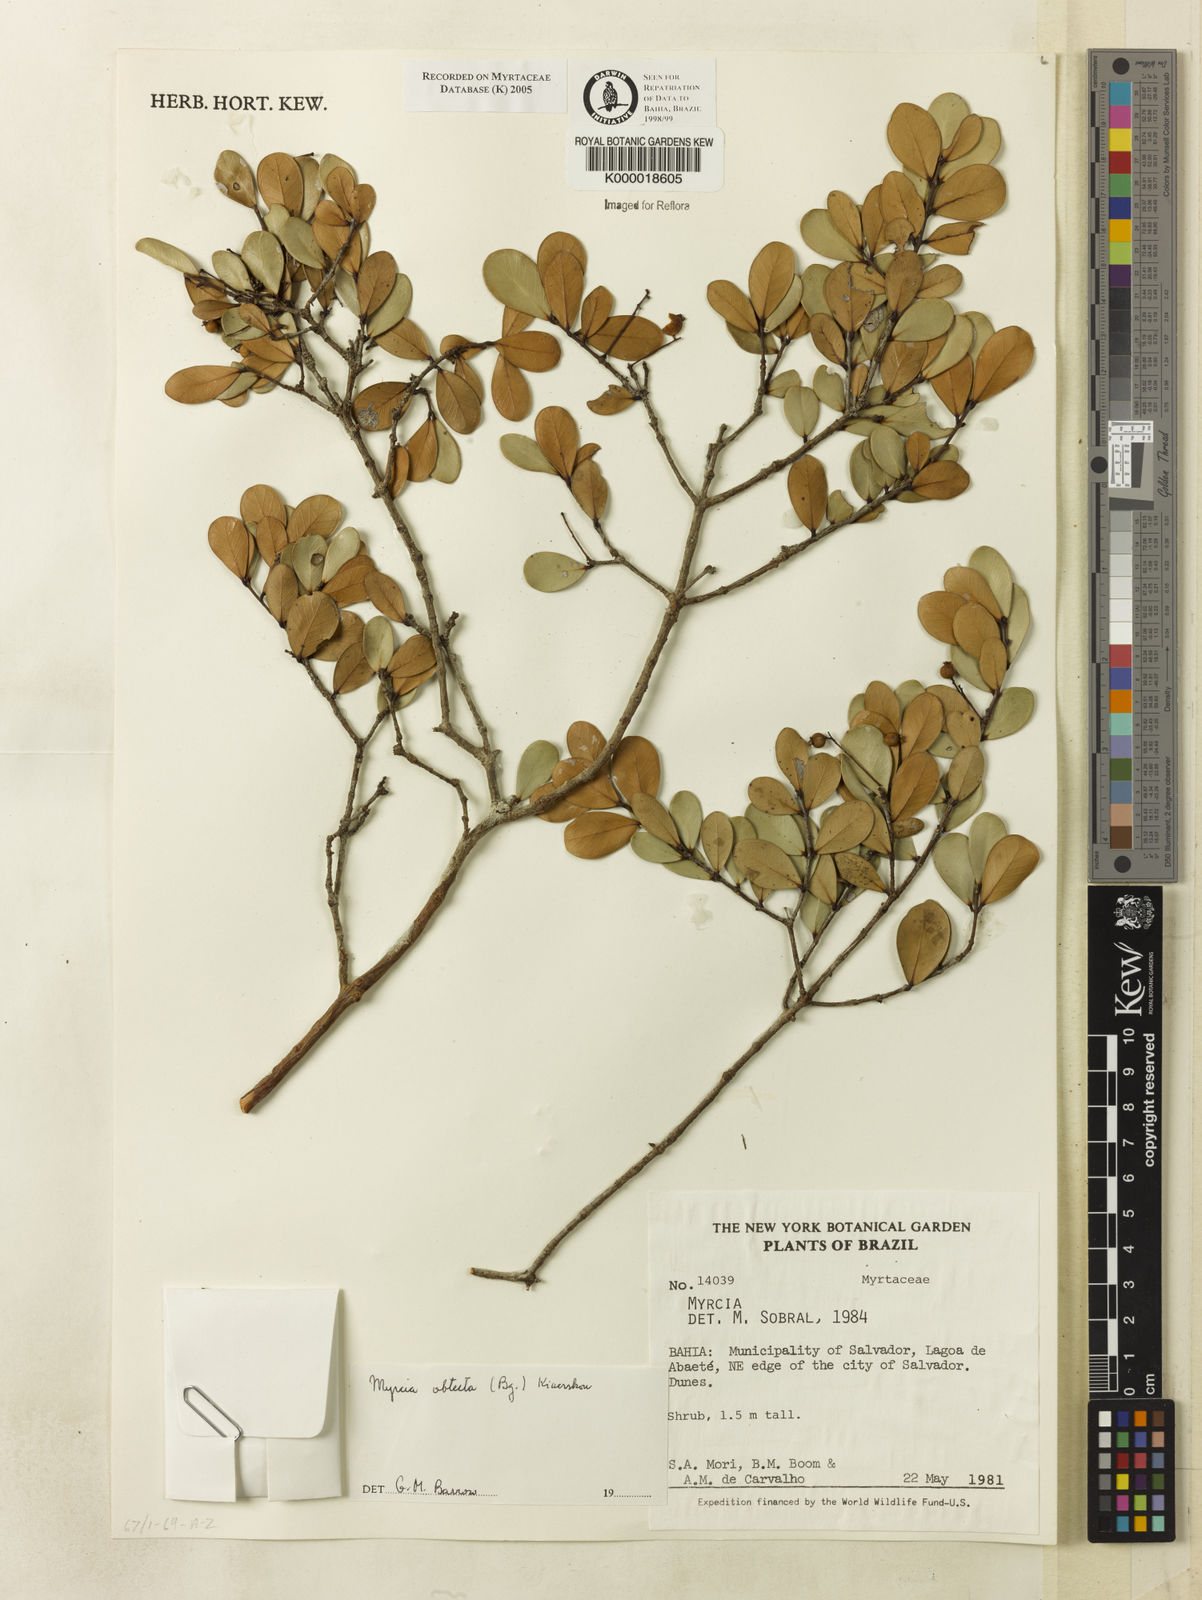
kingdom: Plantae
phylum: Tracheophyta
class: Magnoliopsida
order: Myrtales
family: Myrtaceae
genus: Myrcia
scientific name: Myrcia guianensis
